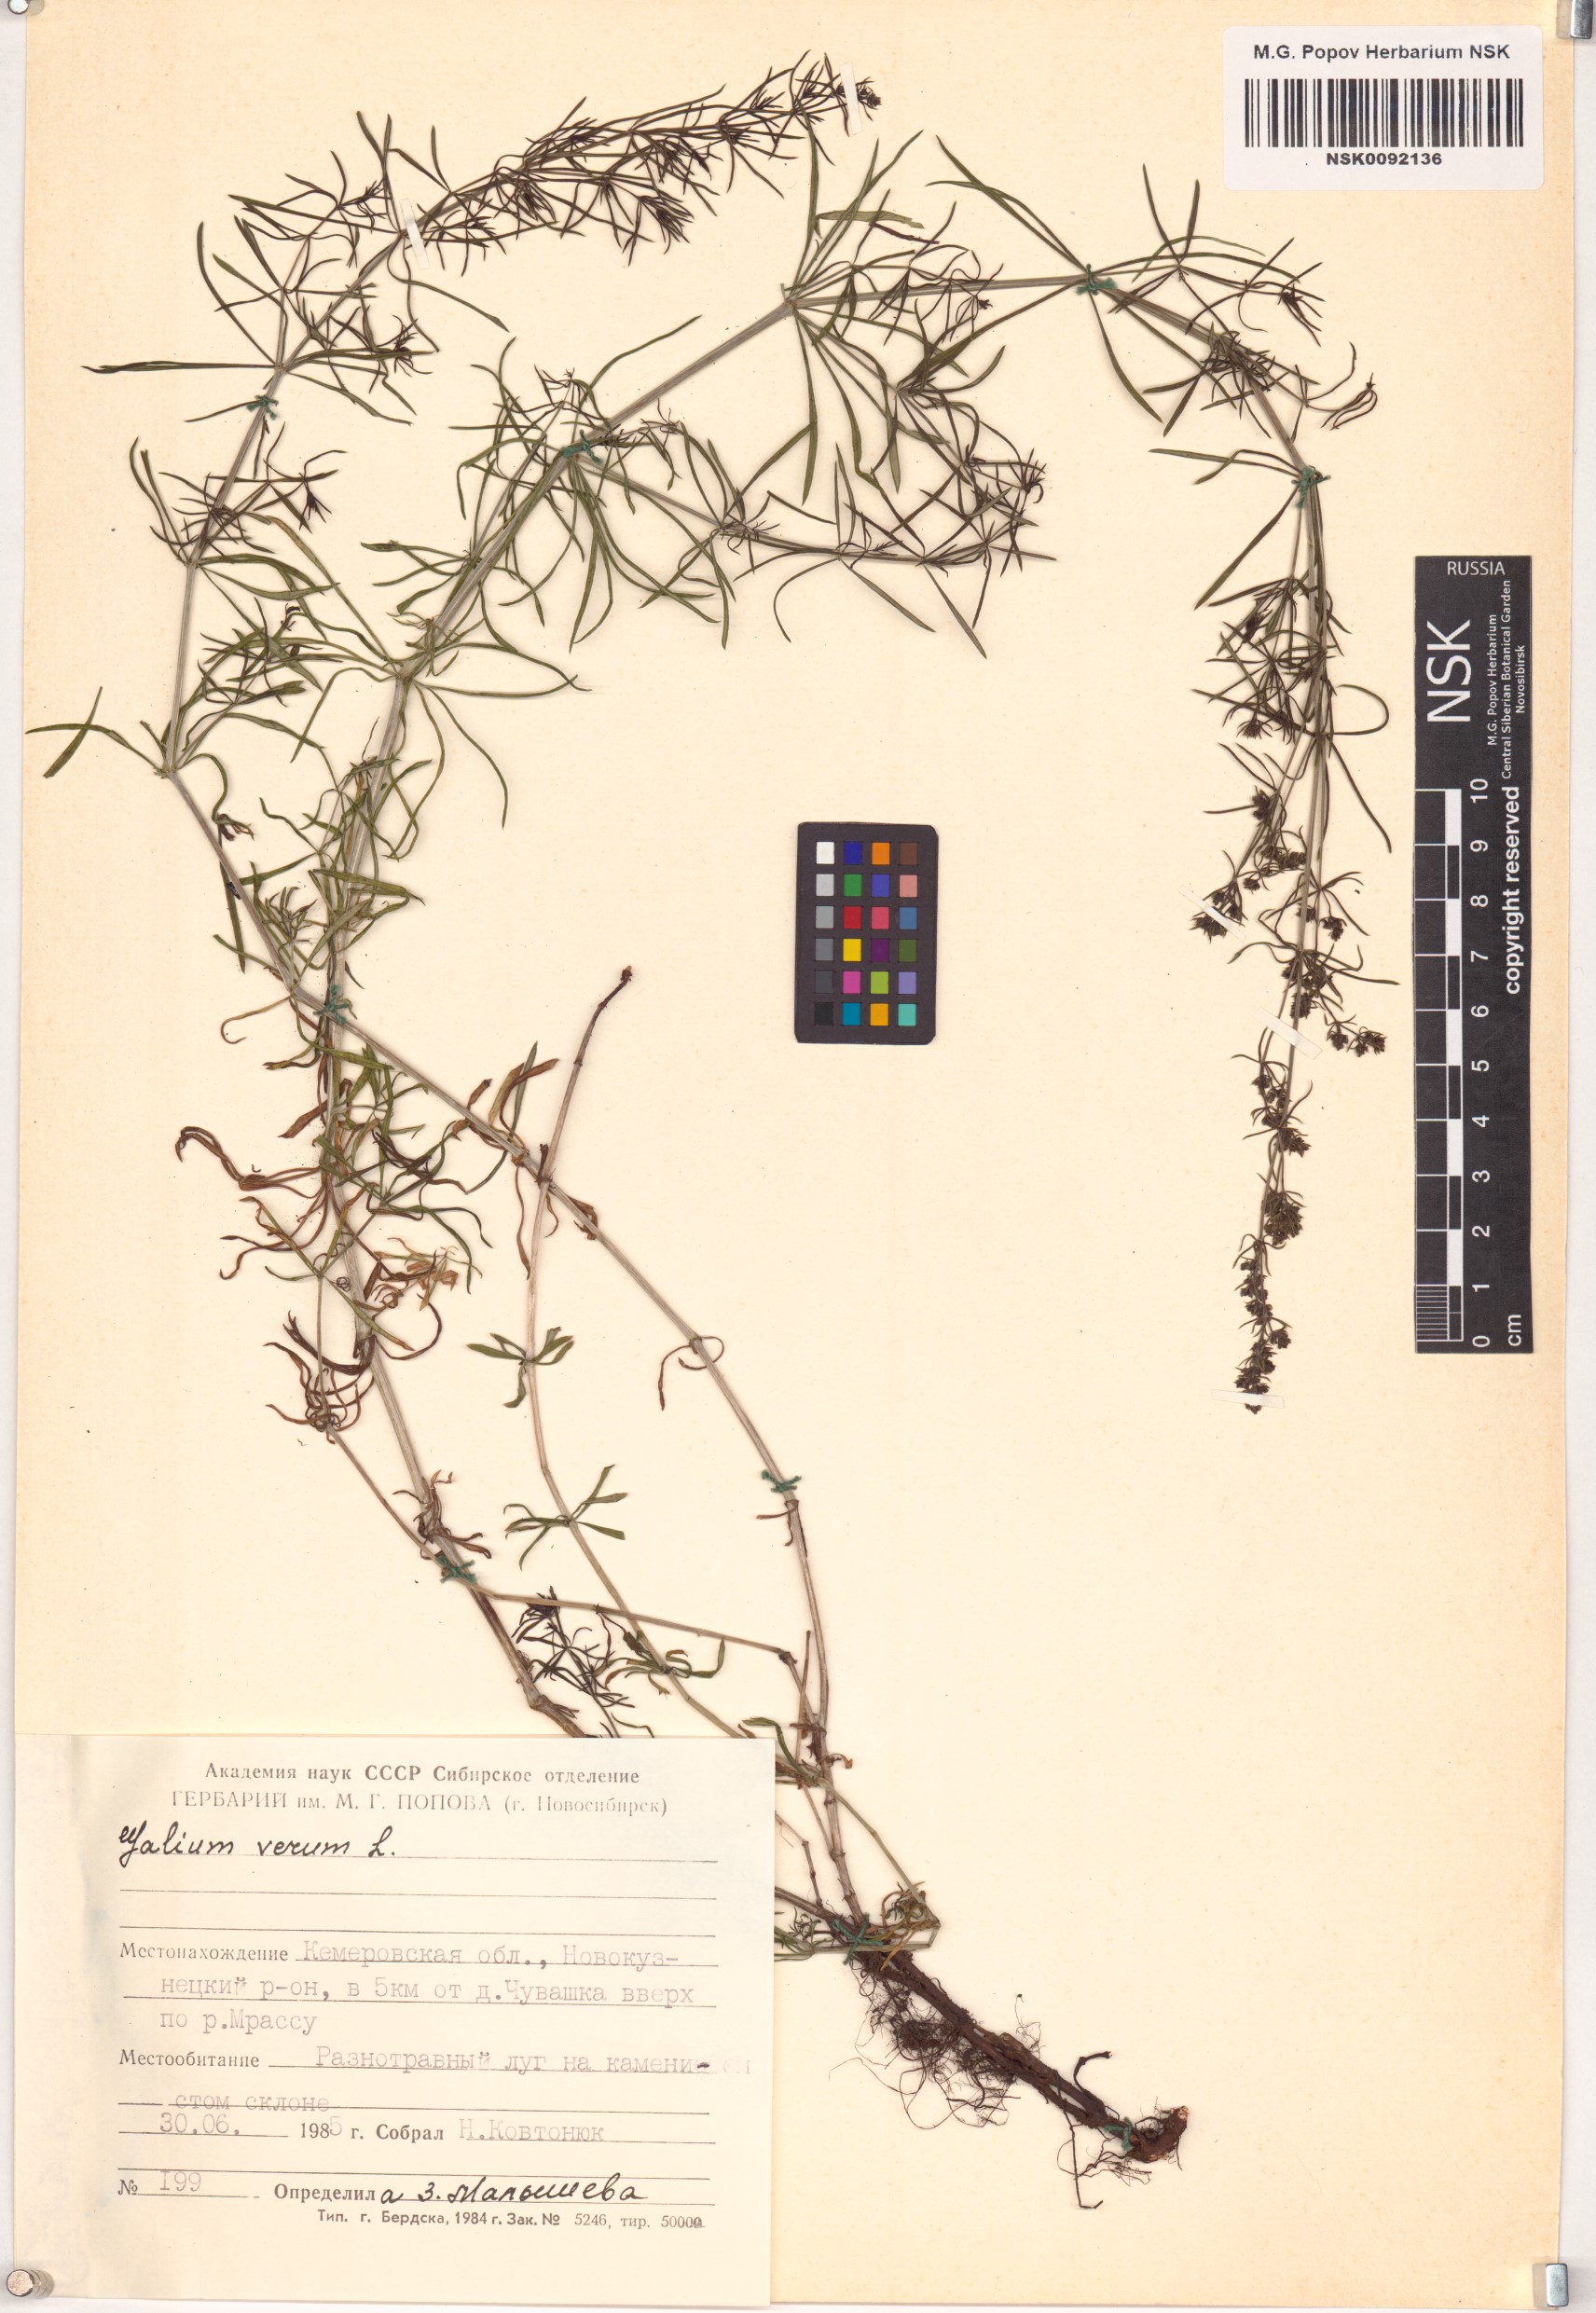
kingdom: Plantae
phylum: Tracheophyta
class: Magnoliopsida
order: Gentianales
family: Rubiaceae
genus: Galium
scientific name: Galium verum
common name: Lady's bedstraw
